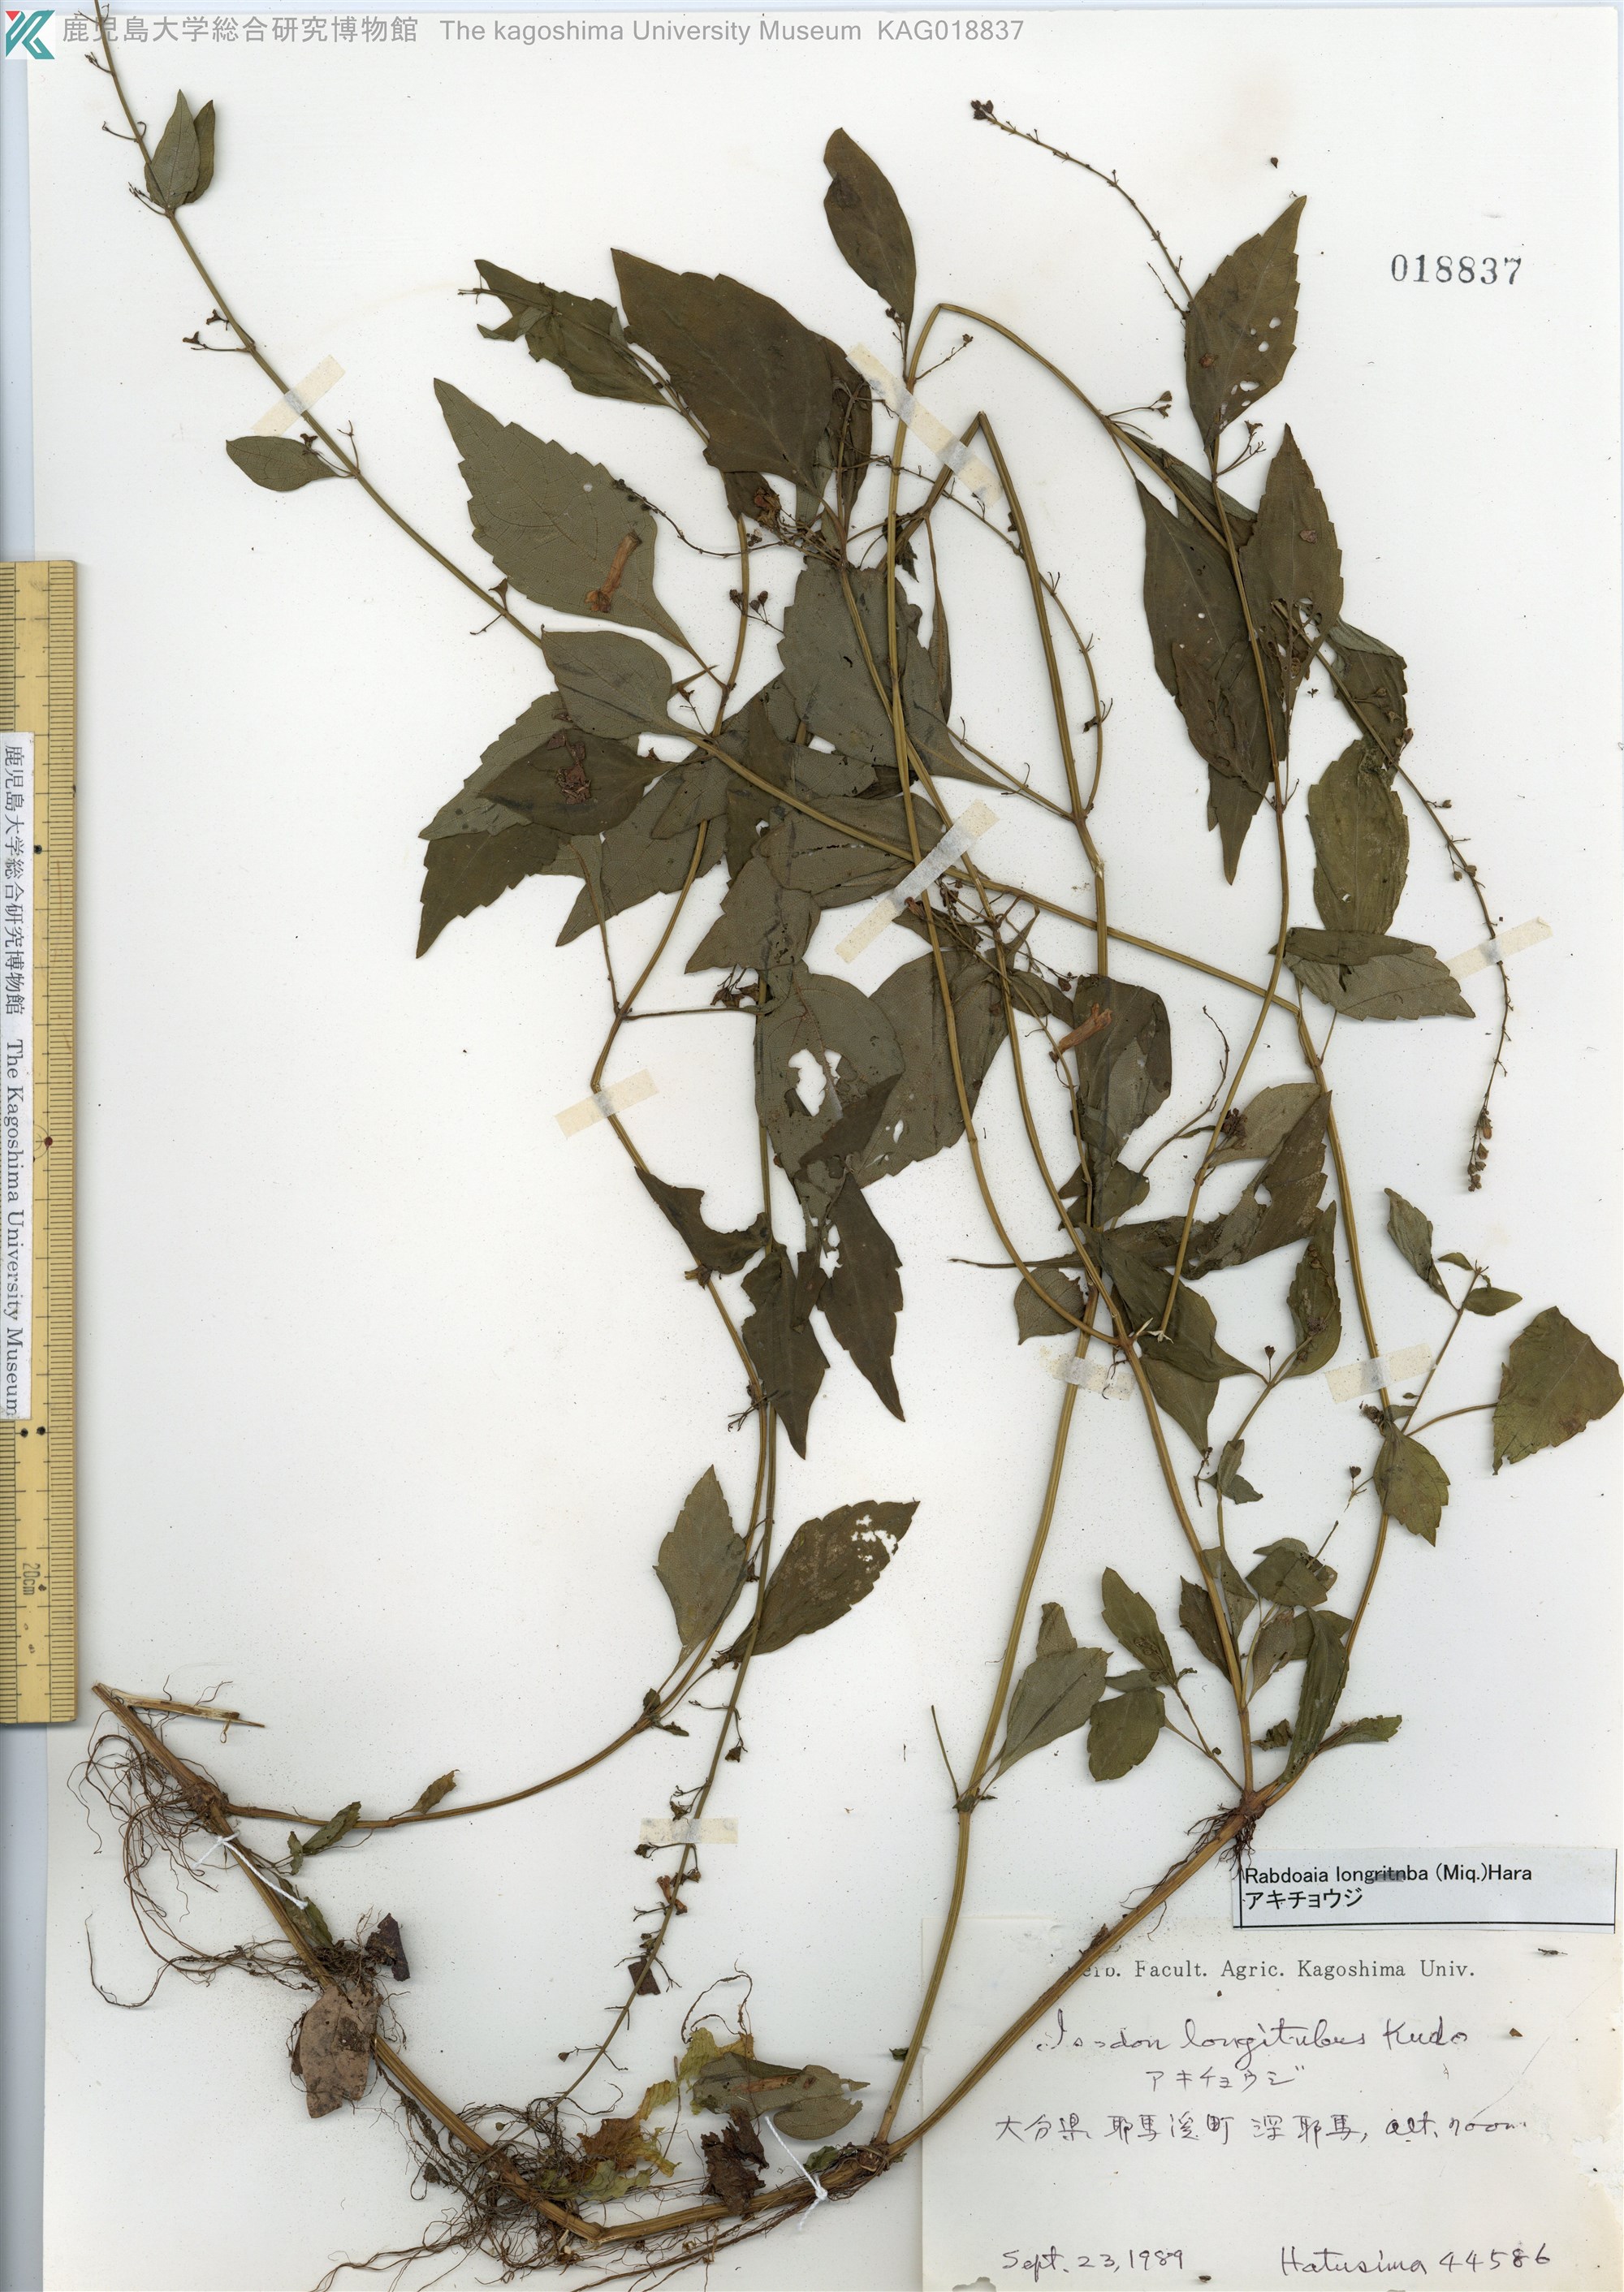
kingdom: Plantae
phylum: Tracheophyta
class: Magnoliopsida
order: Lamiales
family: Lamiaceae
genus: Isodon
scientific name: Isodon longitubus
